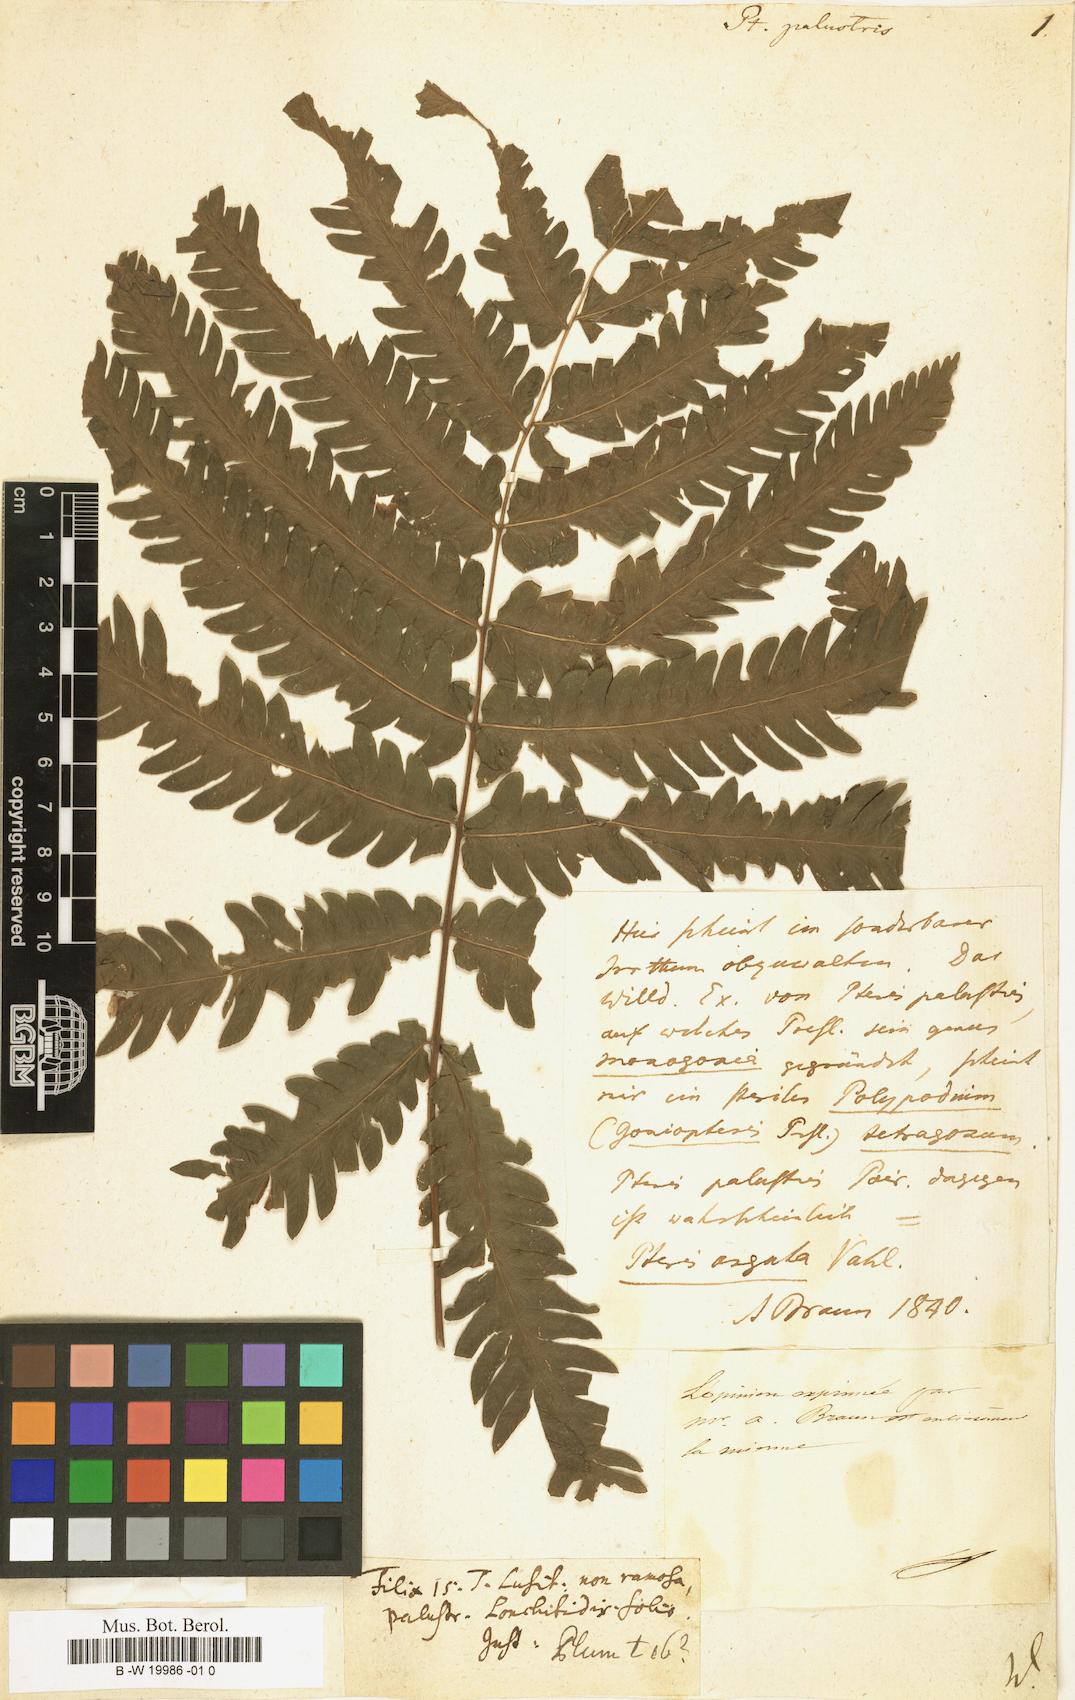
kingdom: Plantae
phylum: Tracheophyta
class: Polypodiopsida
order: Polypodiales
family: Pteridaceae
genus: Pteris
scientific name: Pteris
